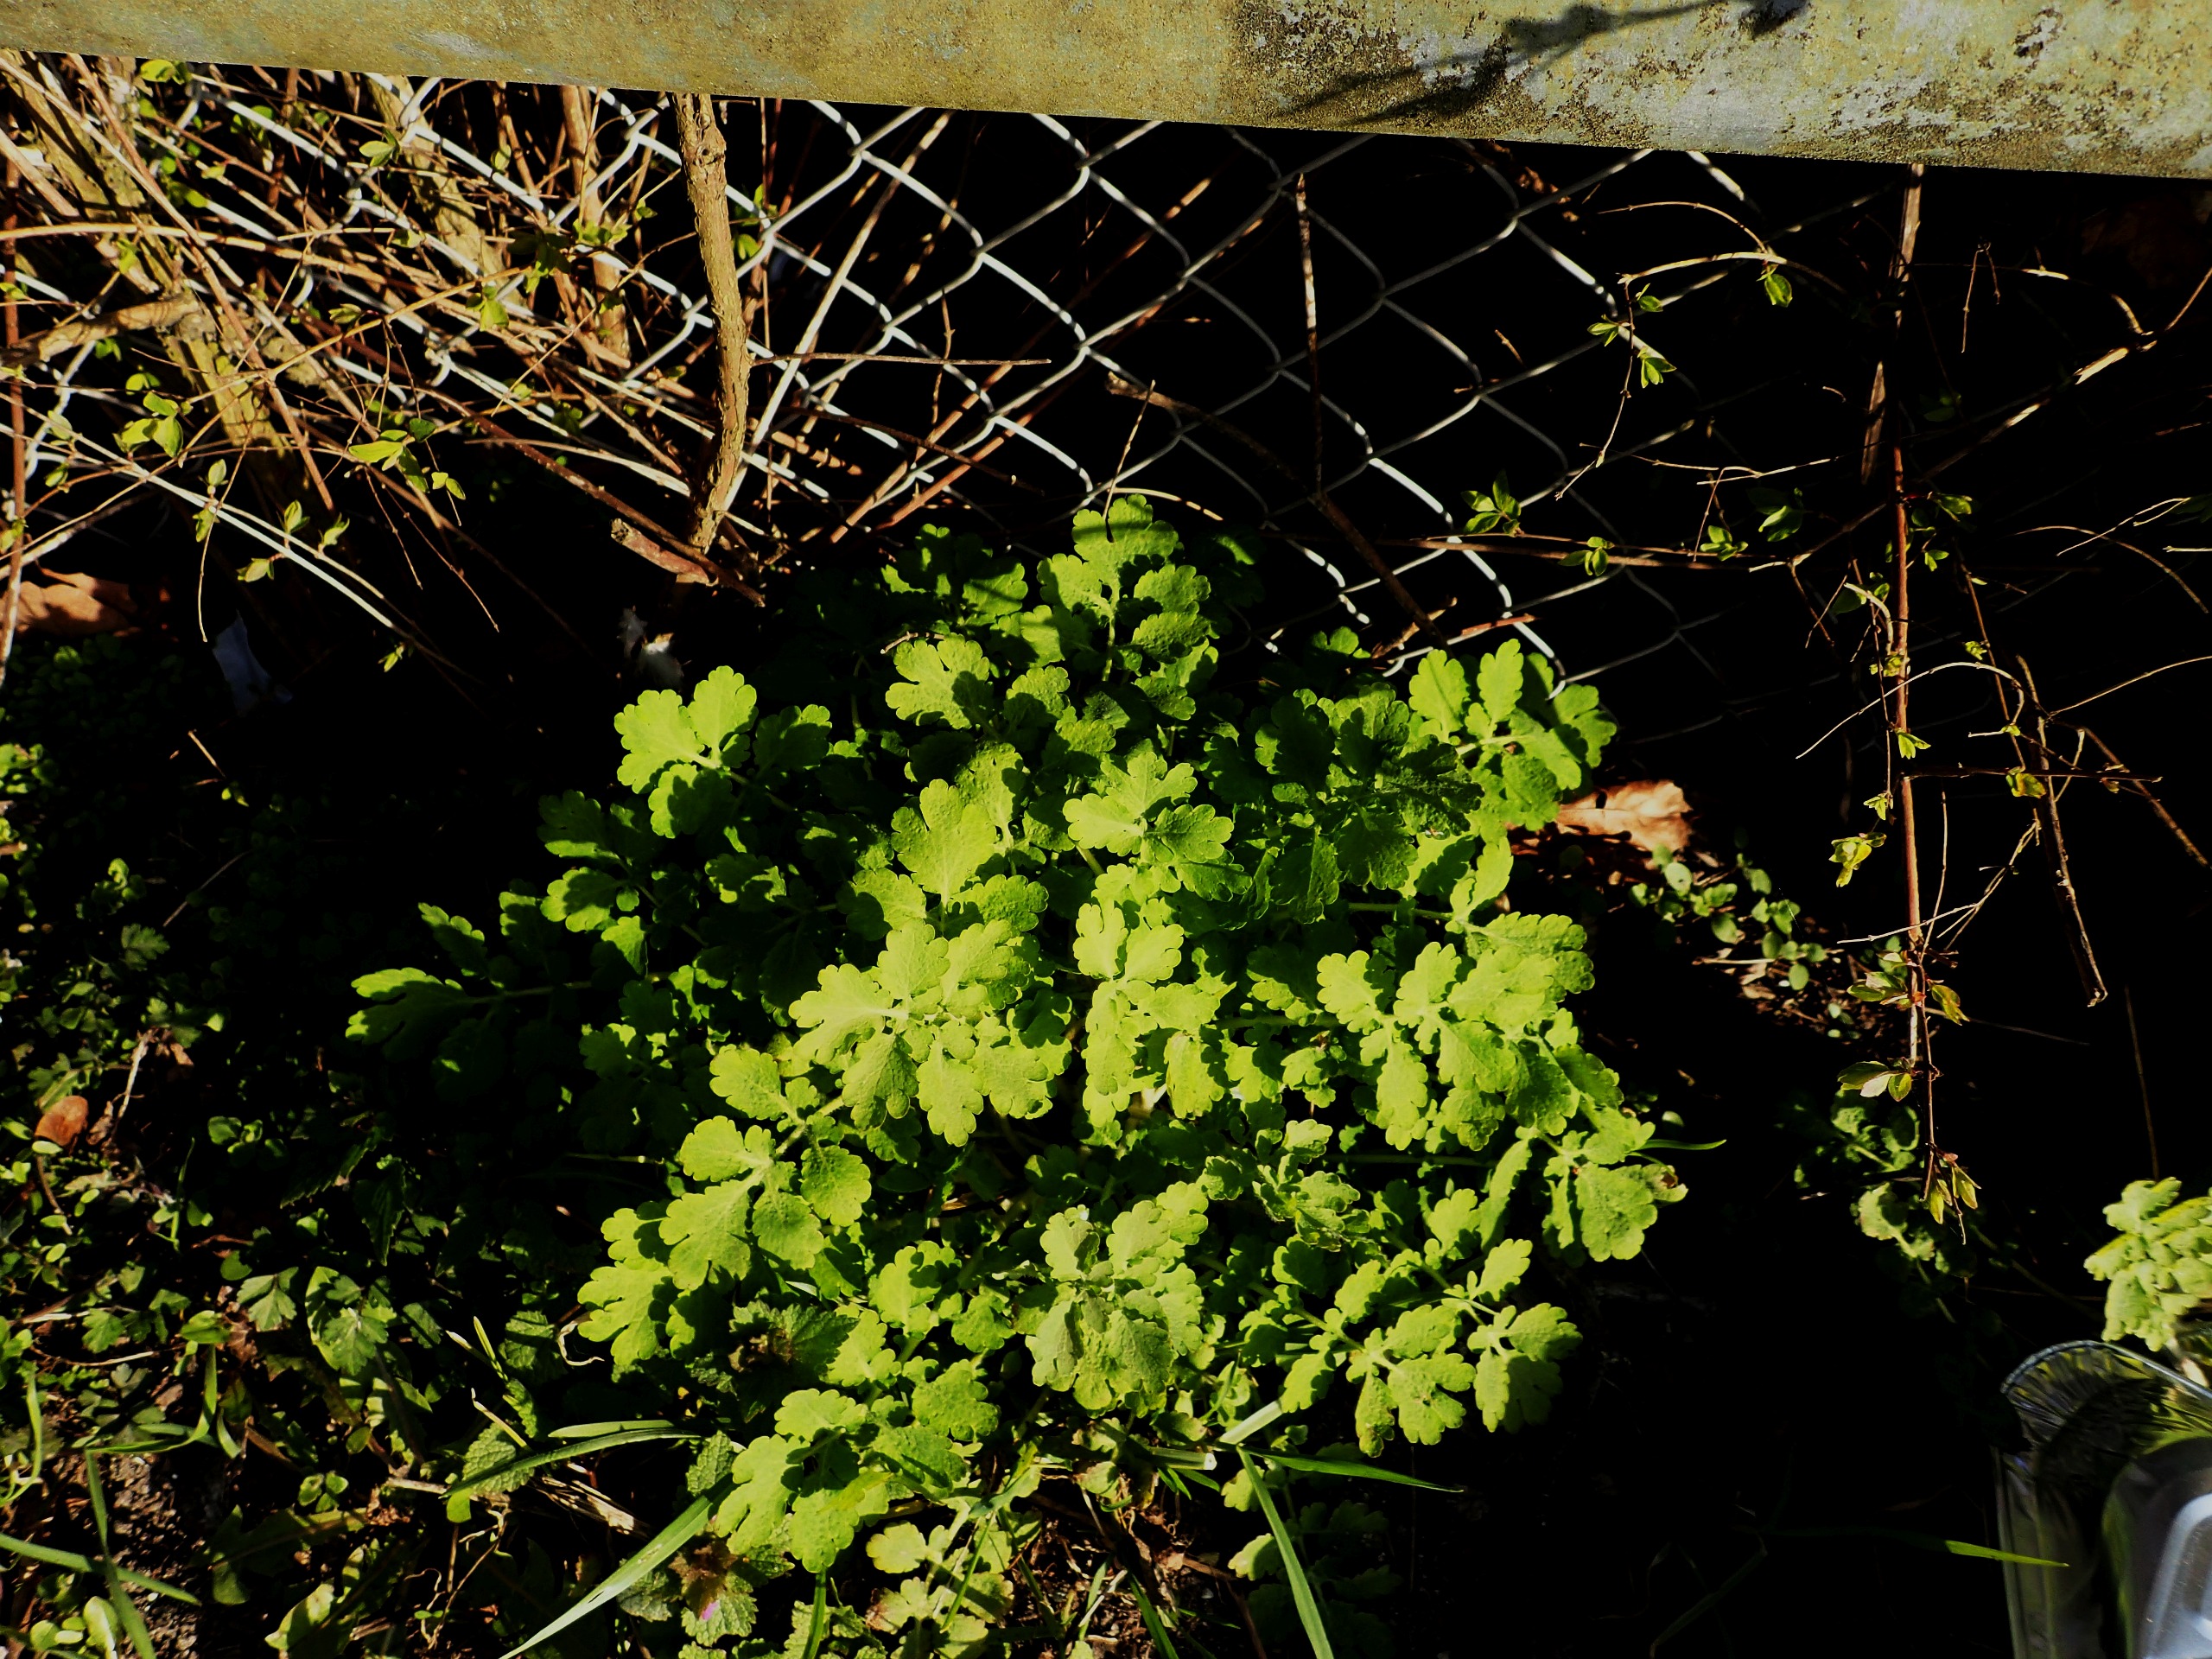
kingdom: Plantae
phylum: Tracheophyta
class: Magnoliopsida
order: Ranunculales
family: Papaveraceae
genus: Chelidonium
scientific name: Chelidonium majus
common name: Svaleurt
